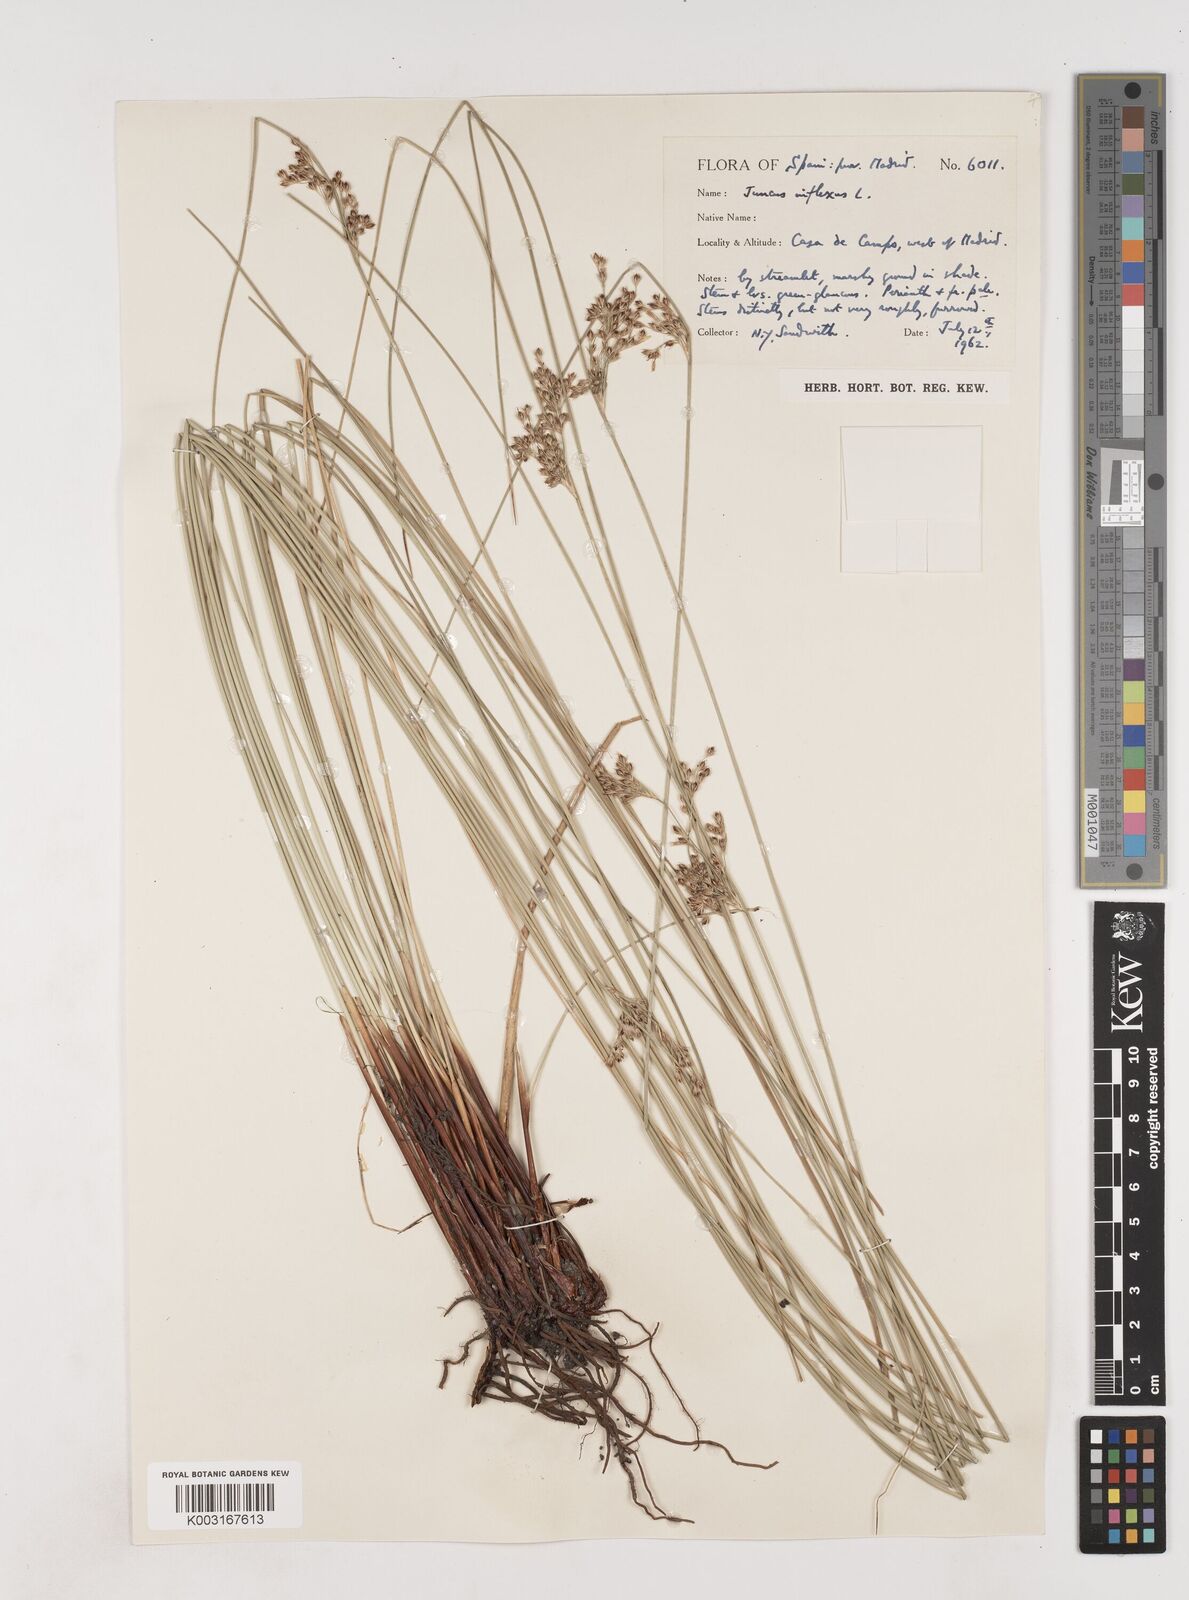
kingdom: Plantae
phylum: Tracheophyta
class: Liliopsida
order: Poales
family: Juncaceae
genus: Juncus
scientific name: Juncus inflexus
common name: Hard rush
